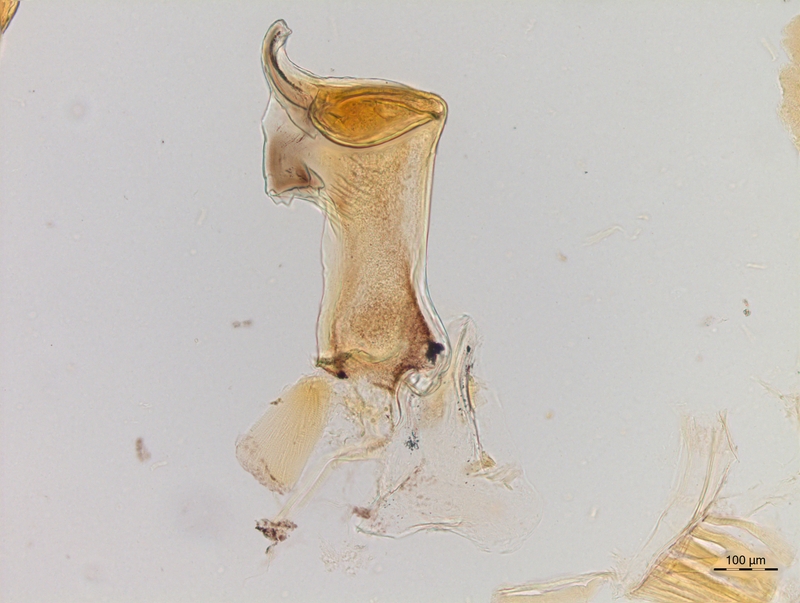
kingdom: Animalia
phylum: Arthropoda
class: Diplopoda
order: Chordeumatida
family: Craspedosomatidae
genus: Craspedosoma
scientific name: Craspedosoma rawlinsii
